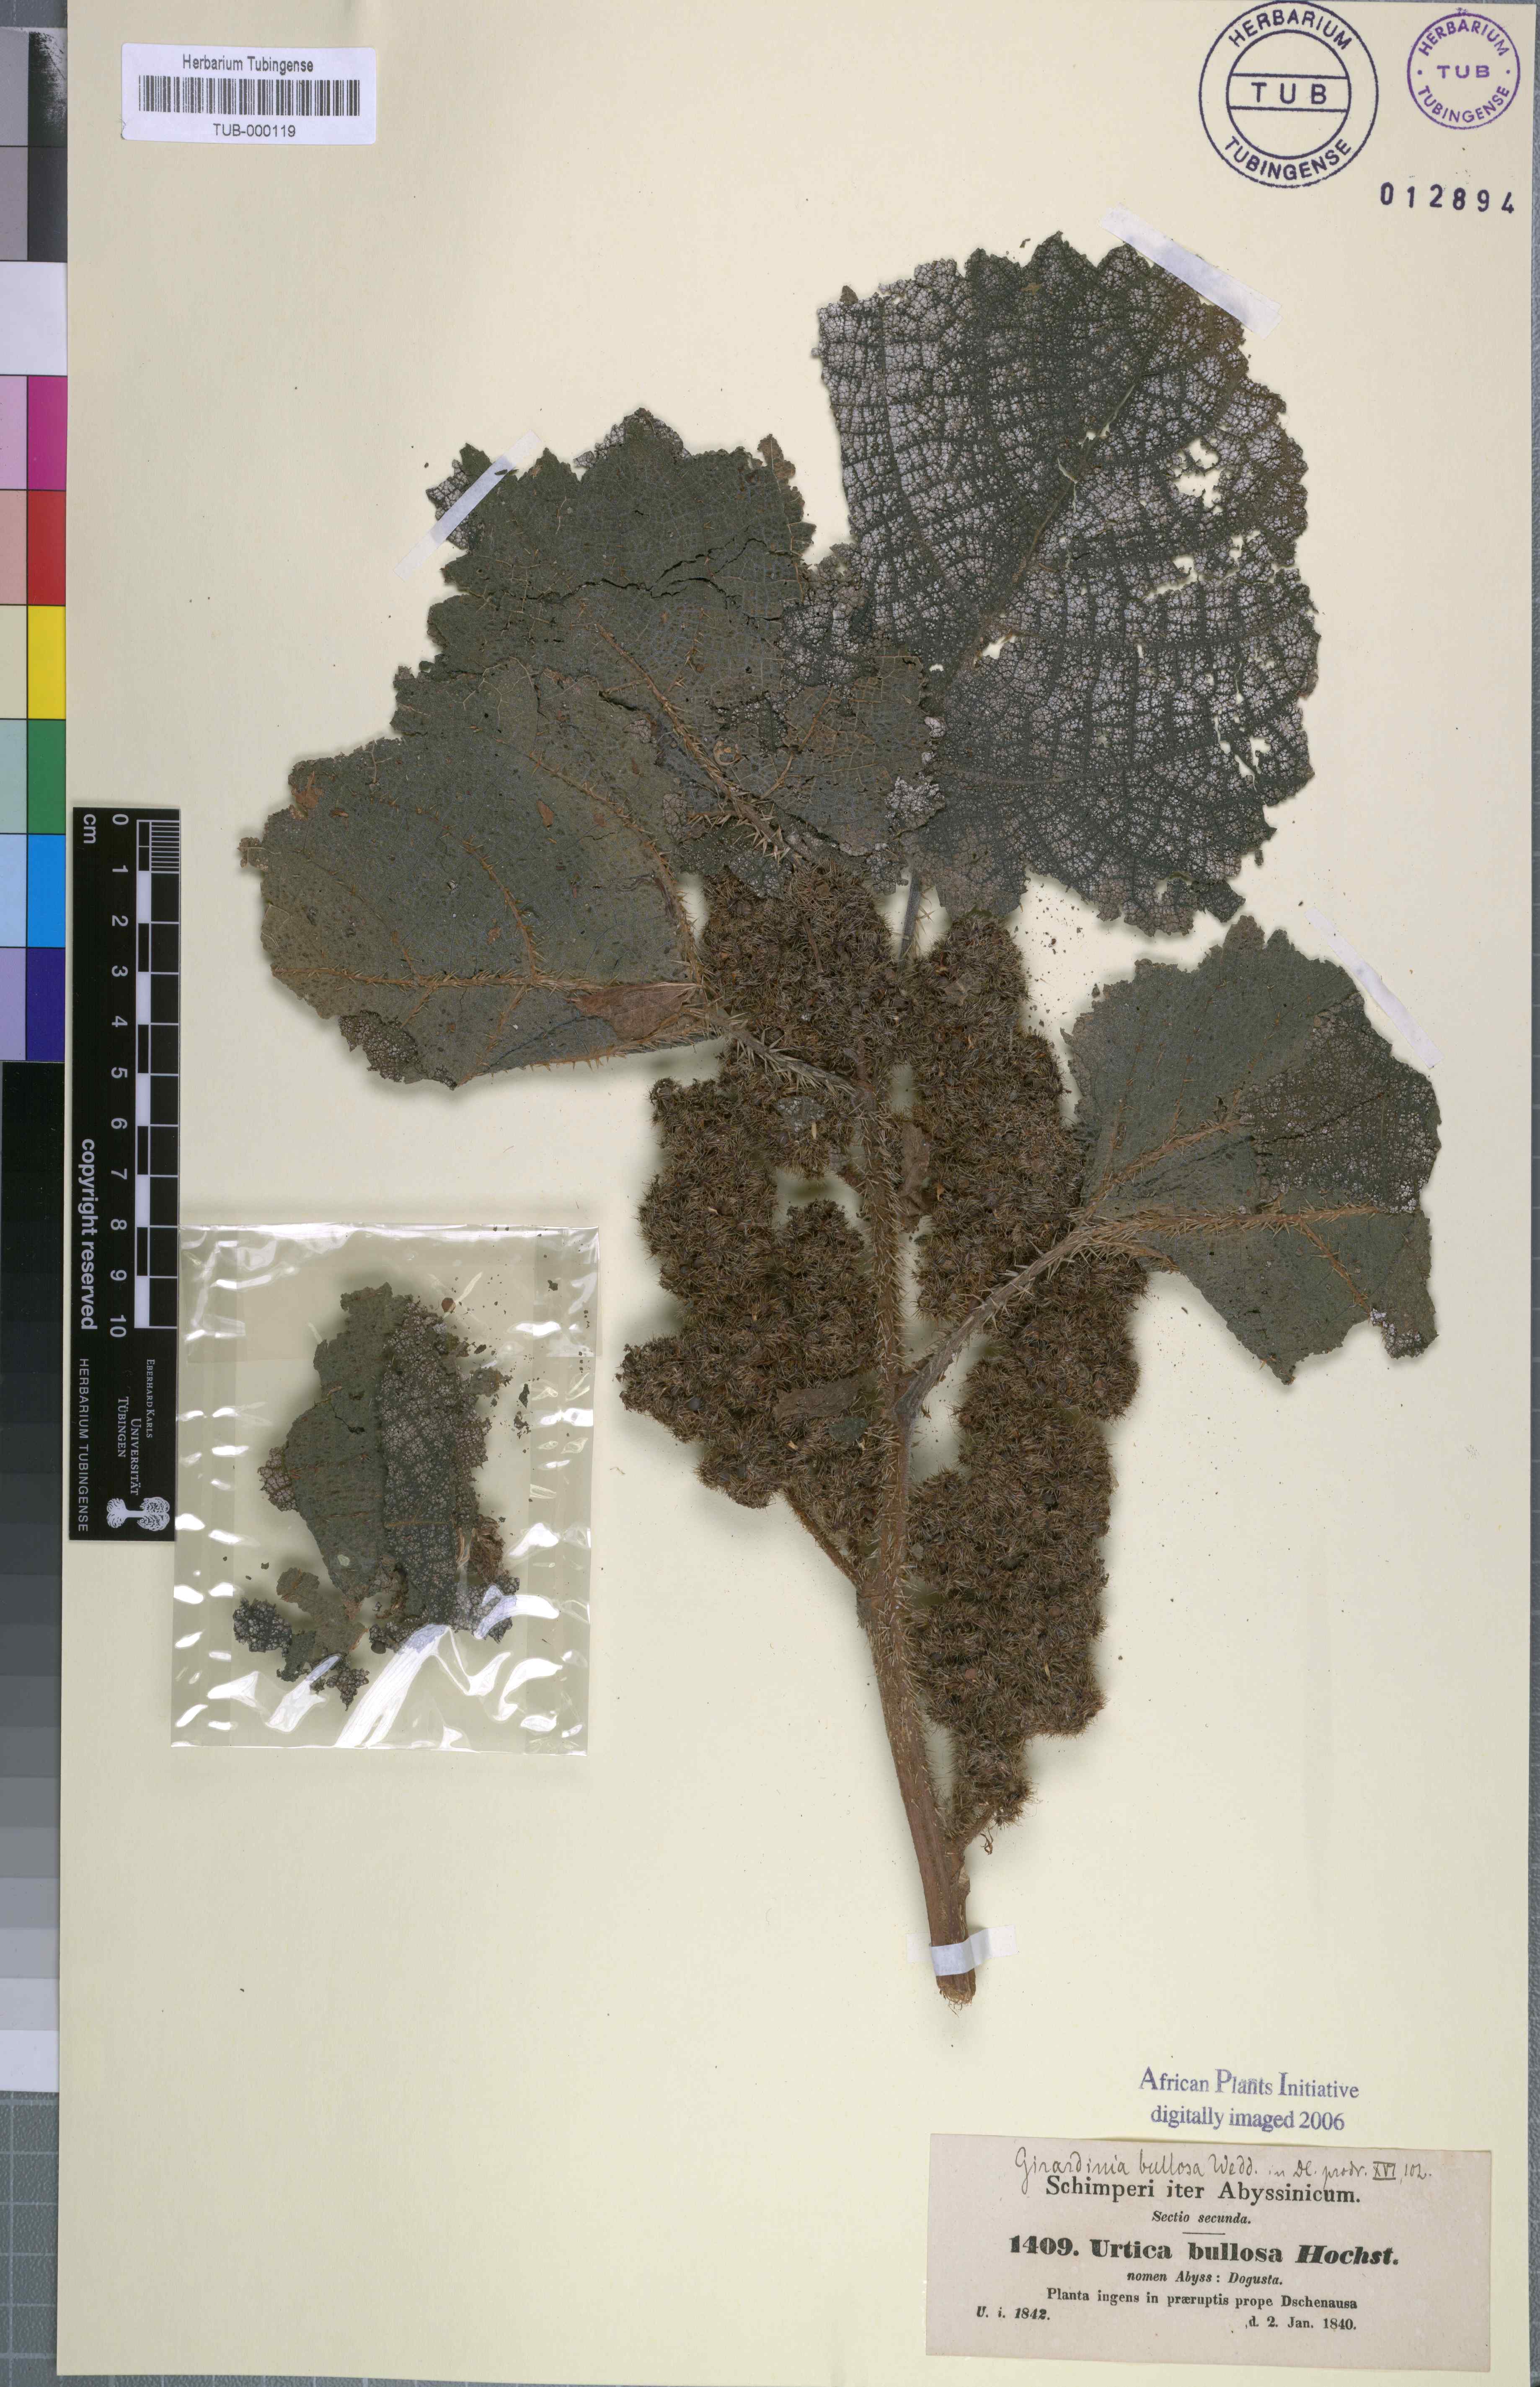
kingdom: Plantae
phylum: Tracheophyta
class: Magnoliopsida
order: Rosales
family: Urticaceae
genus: Girardinia
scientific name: Girardinia bullosa
